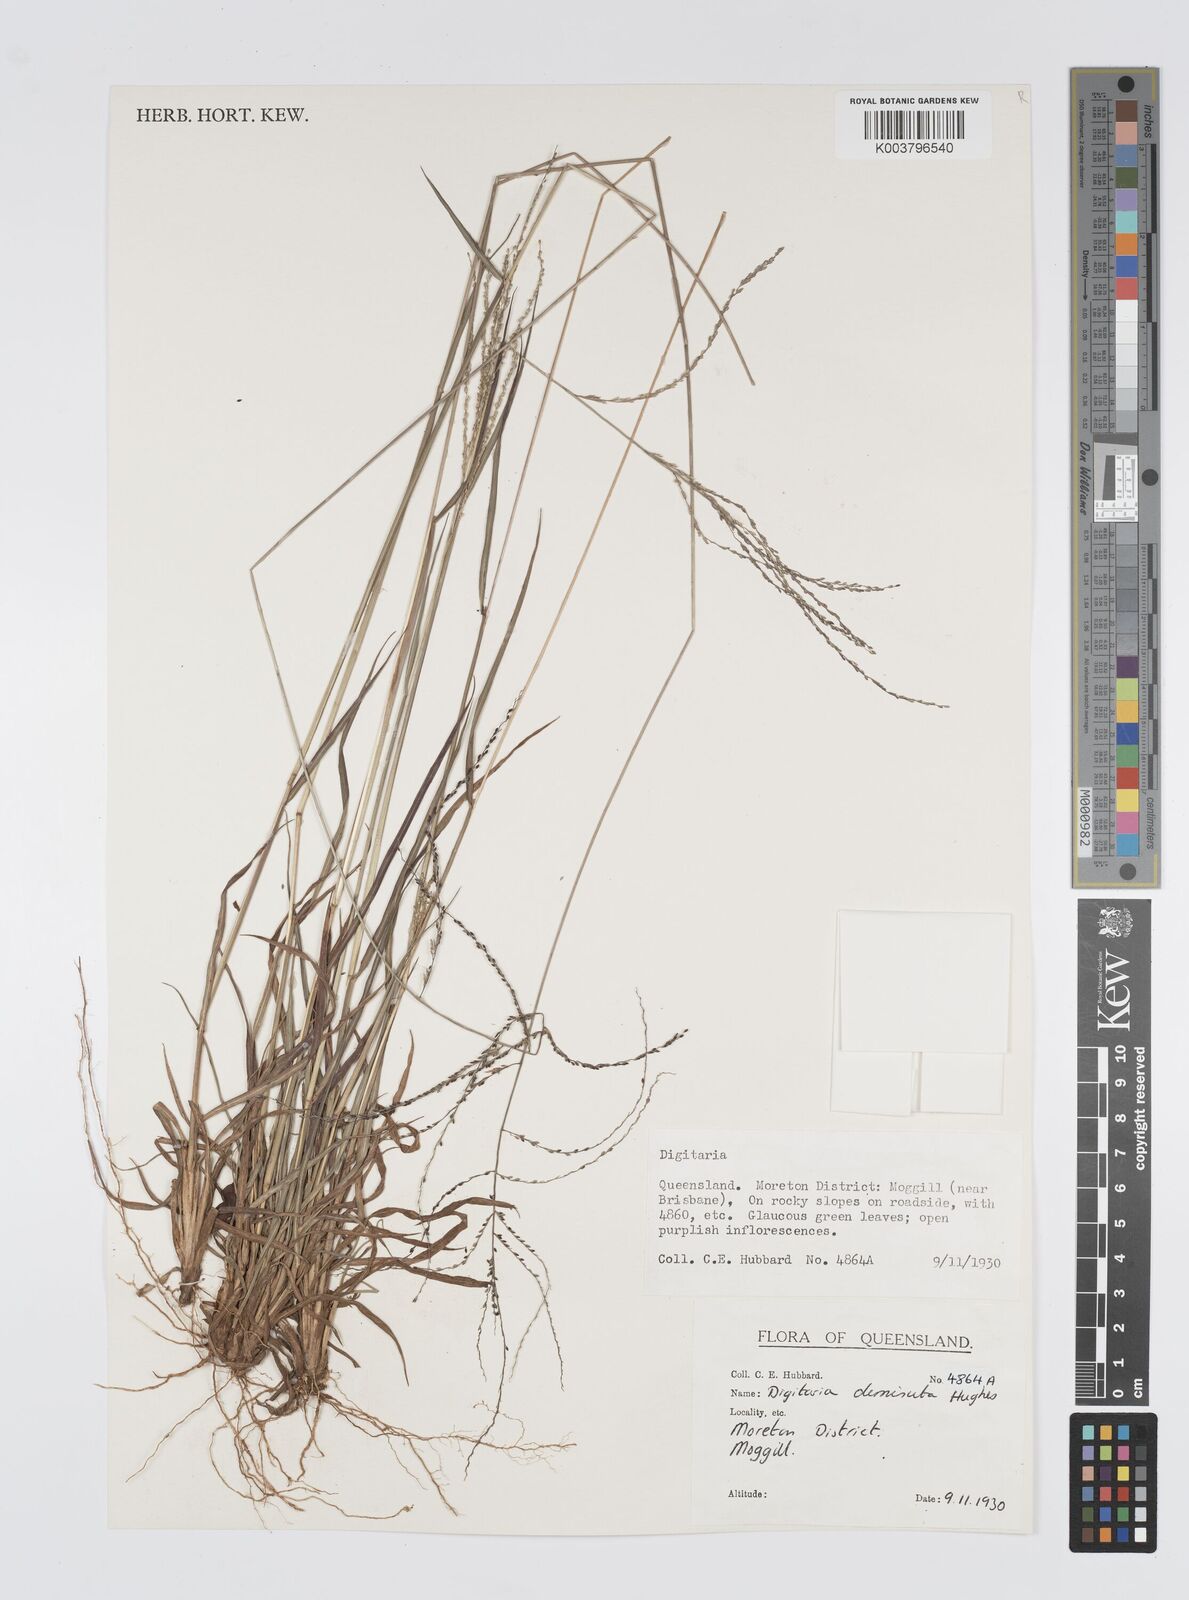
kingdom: Plantae
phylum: Tracheophyta
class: Liliopsida
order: Poales
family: Poaceae
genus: Digitaria
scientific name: Digitaria breviglumis
